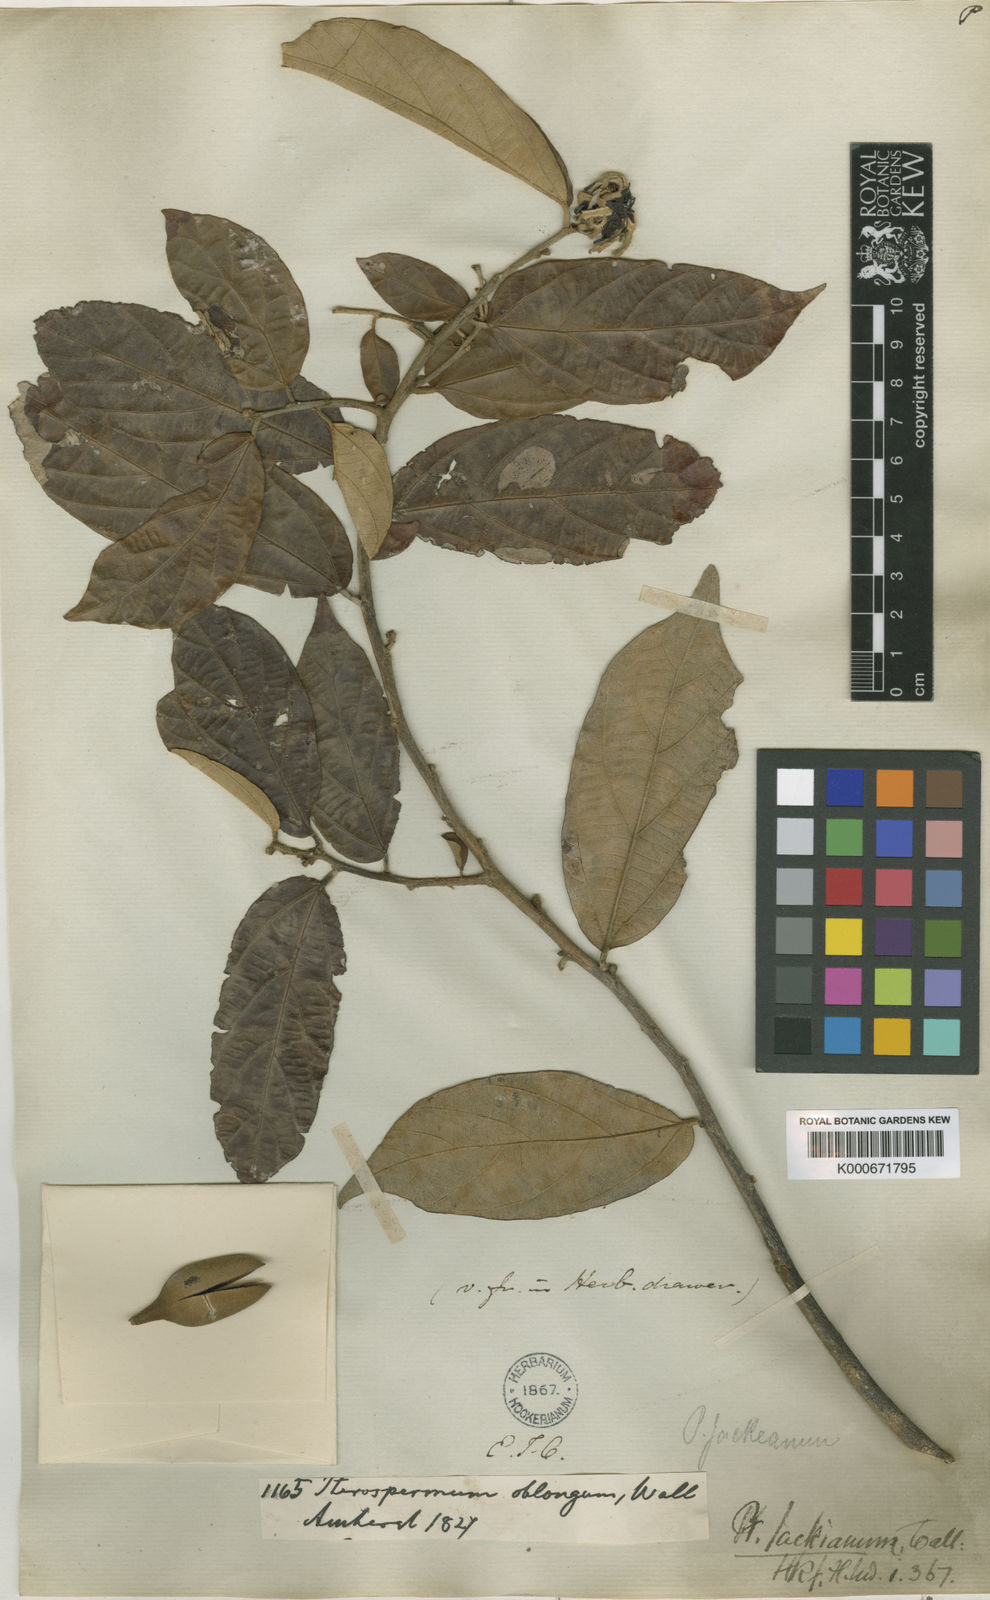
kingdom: Plantae
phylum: Tracheophyta
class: Magnoliopsida
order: Malvales
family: Malvaceae
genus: Pterospermum
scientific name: Pterospermum
